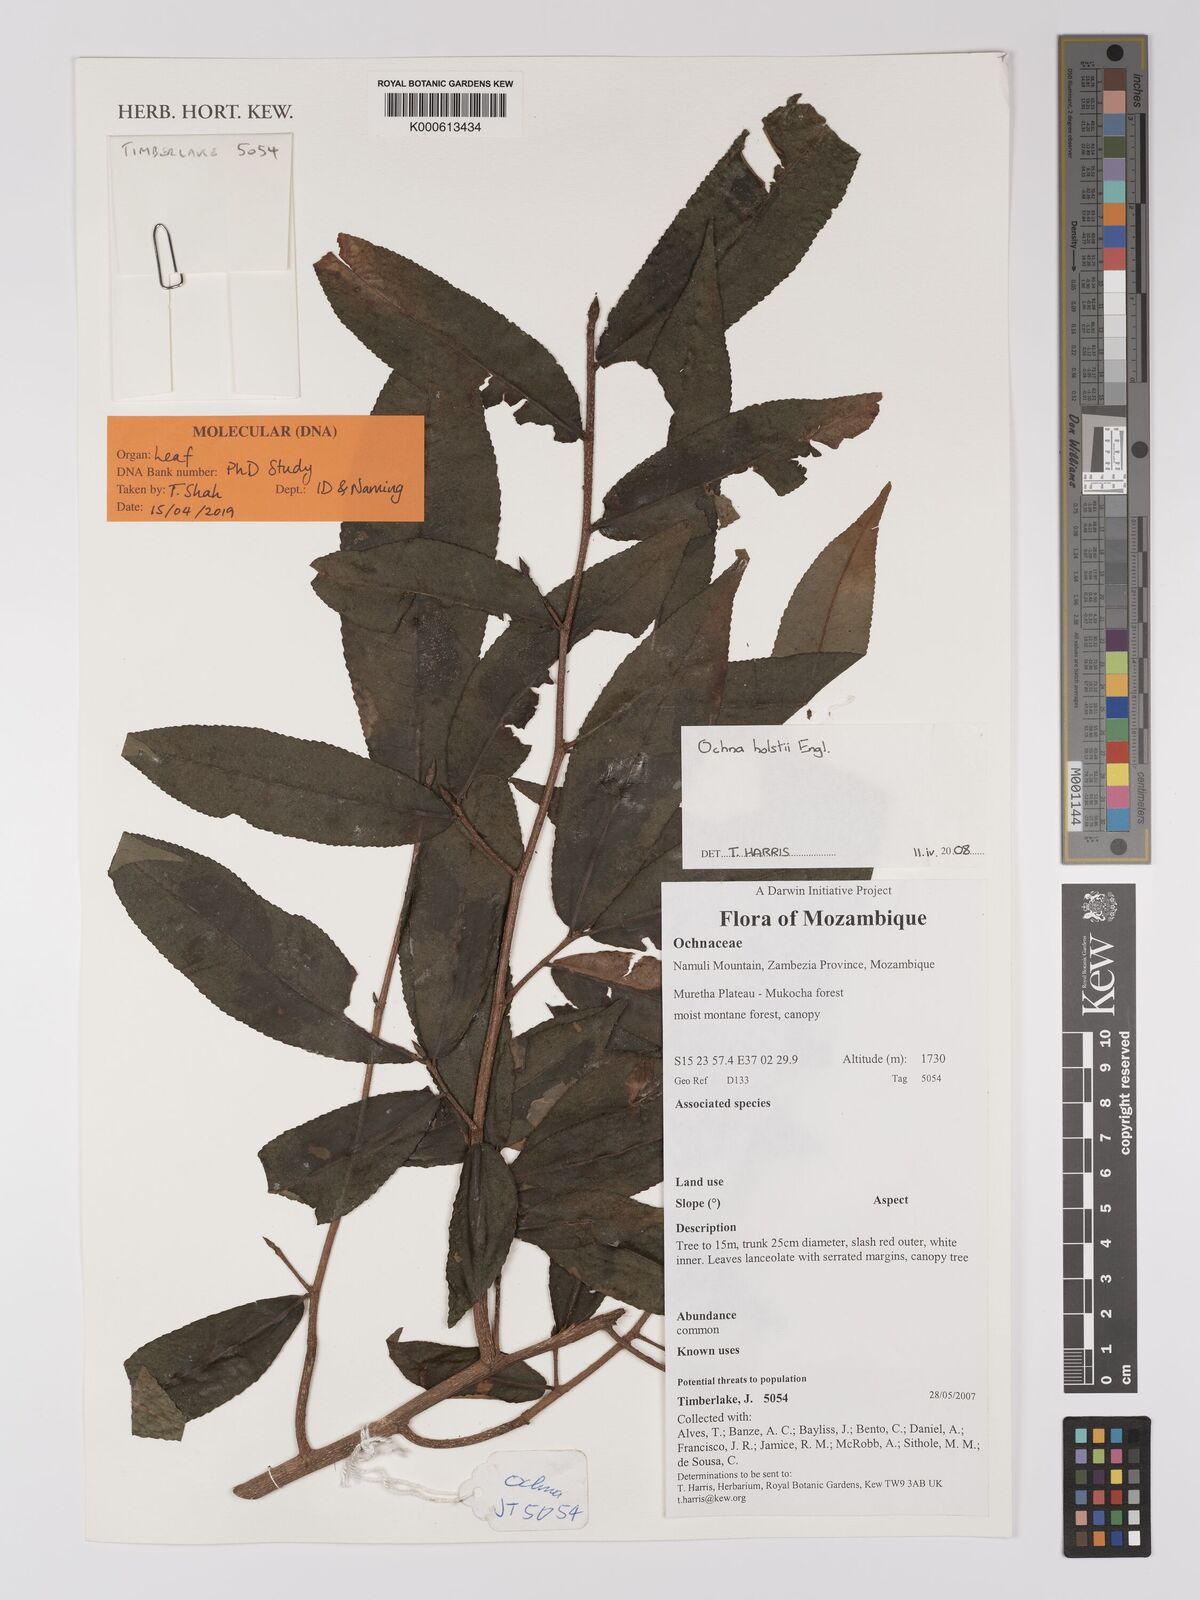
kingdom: Plantae
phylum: Tracheophyta
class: Magnoliopsida
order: Malpighiales
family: Ochnaceae
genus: Ochna
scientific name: Ochna holstii
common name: Red ironwood
